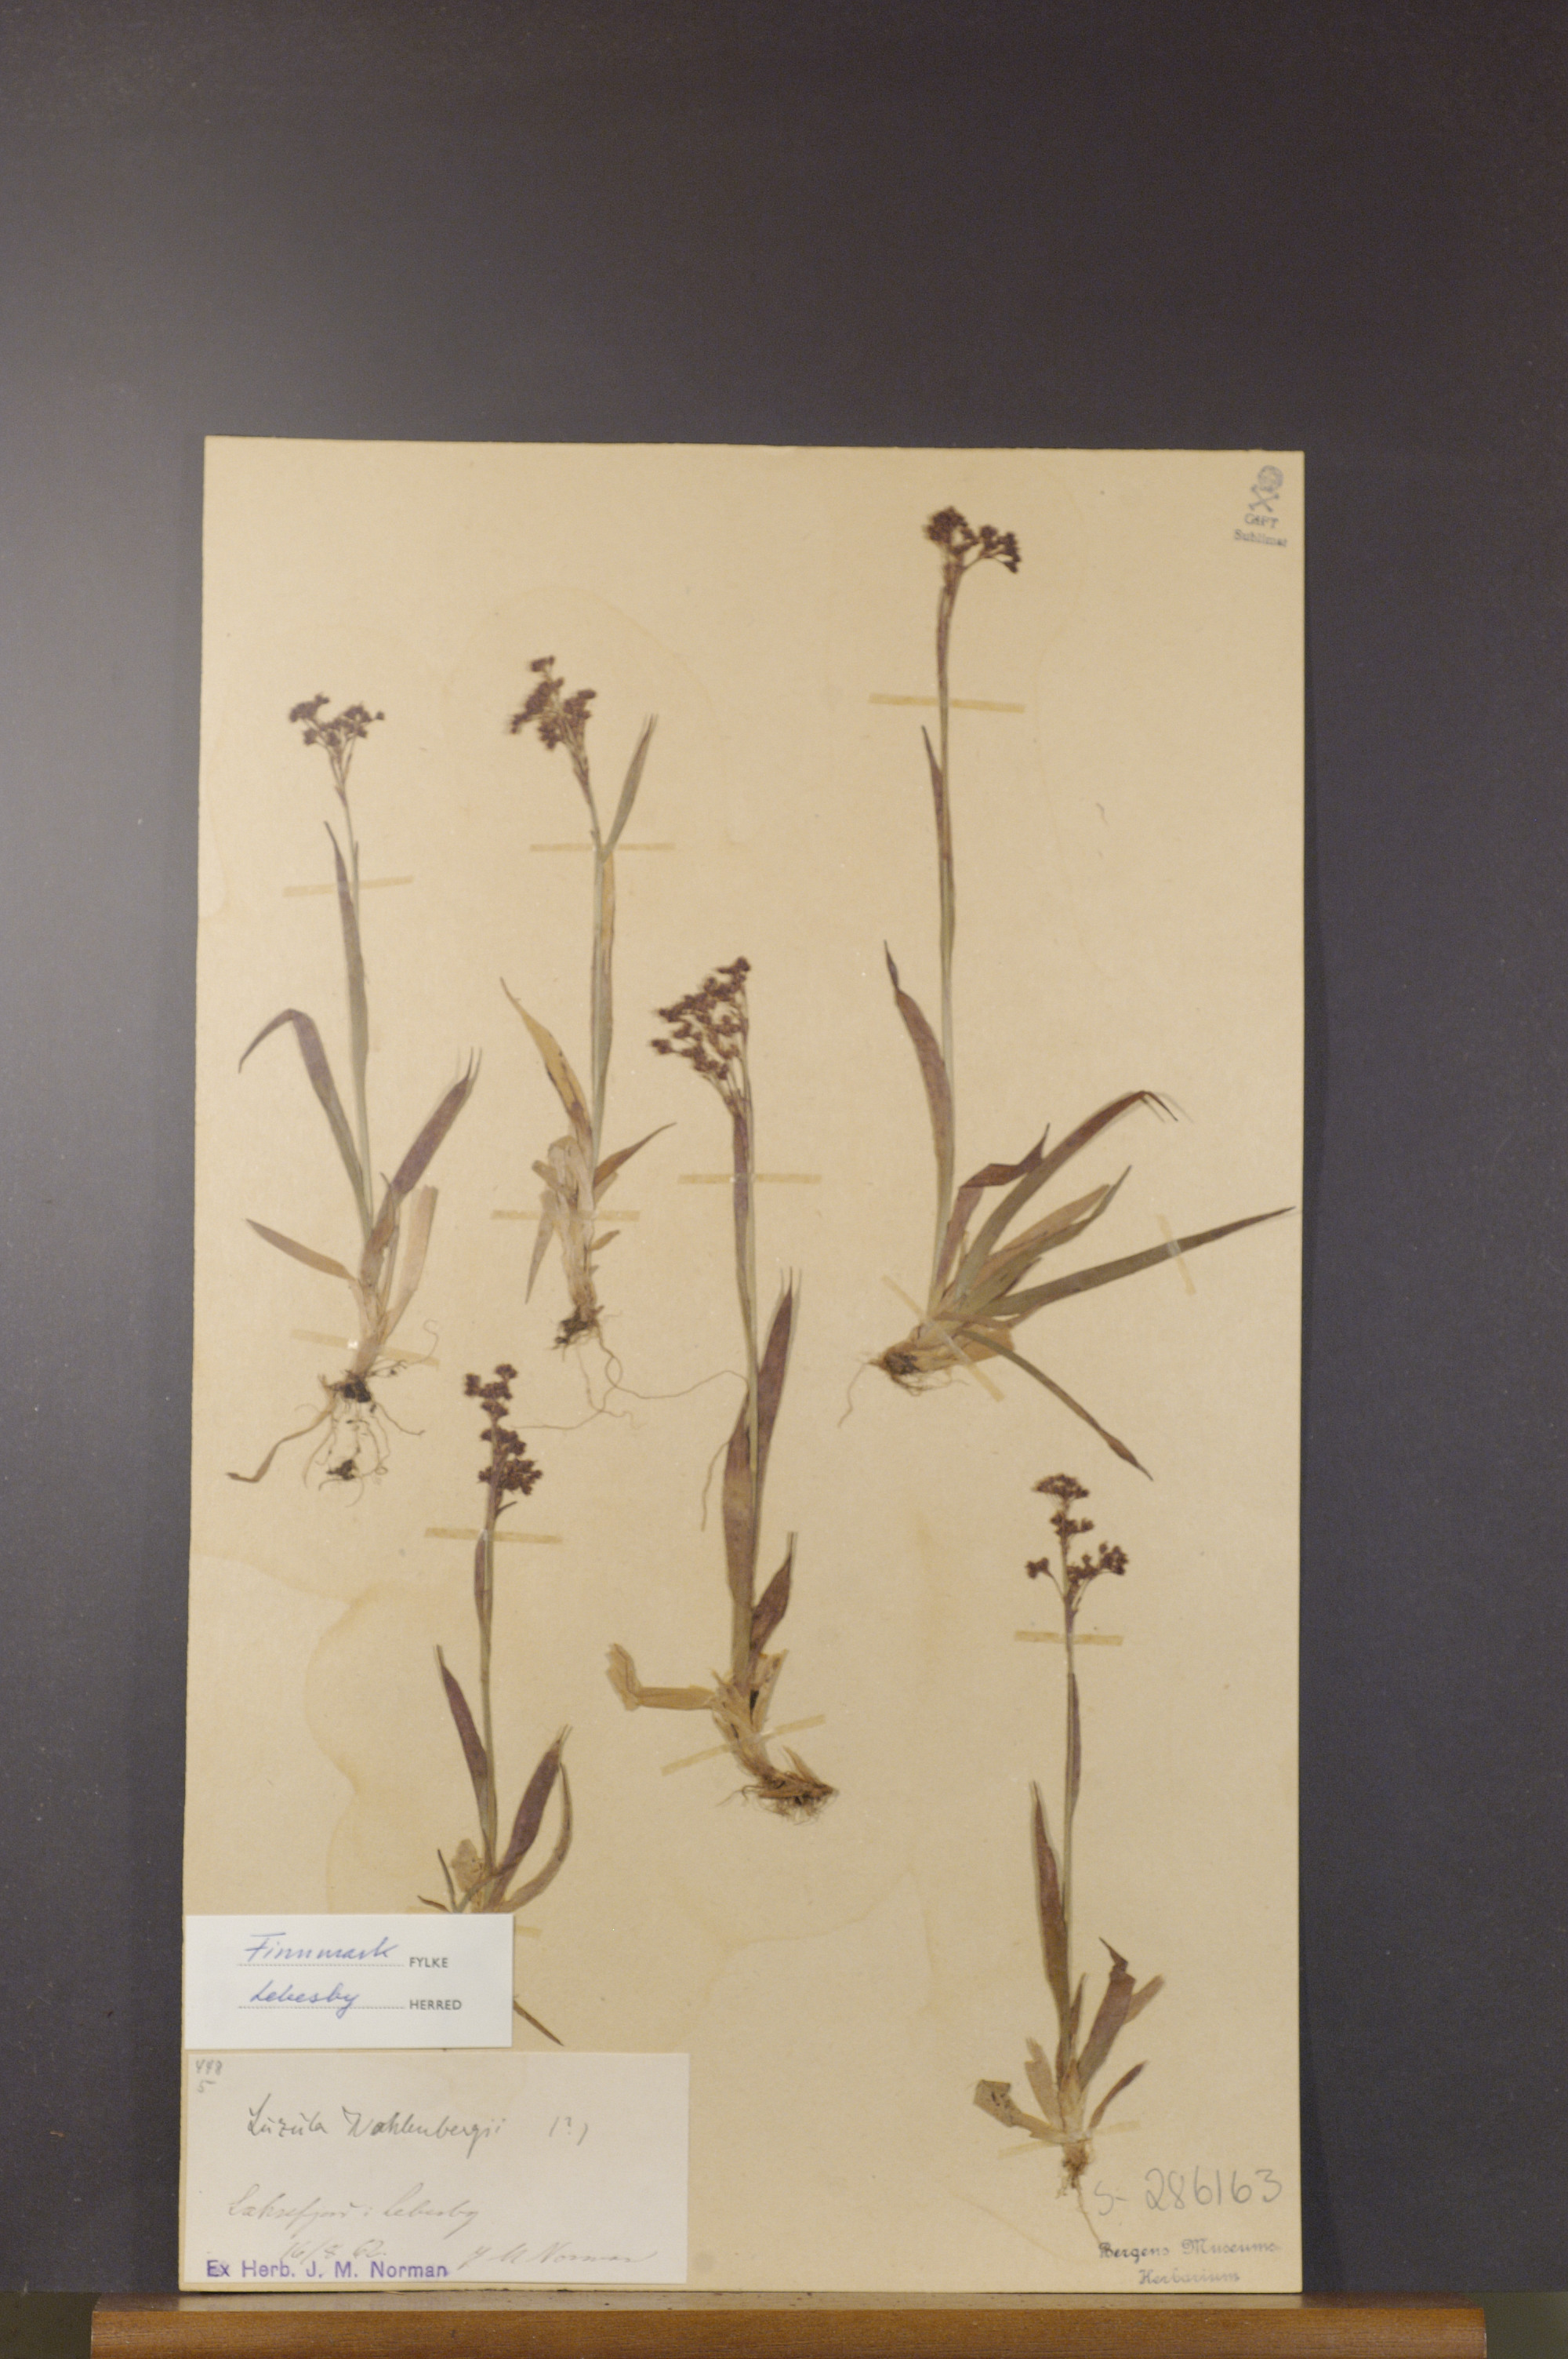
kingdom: Plantae
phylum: Tracheophyta
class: Liliopsida
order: Poales
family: Juncaceae
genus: Luzula
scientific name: Luzula wahlenbergii
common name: Wahlenberg's wood-rush
